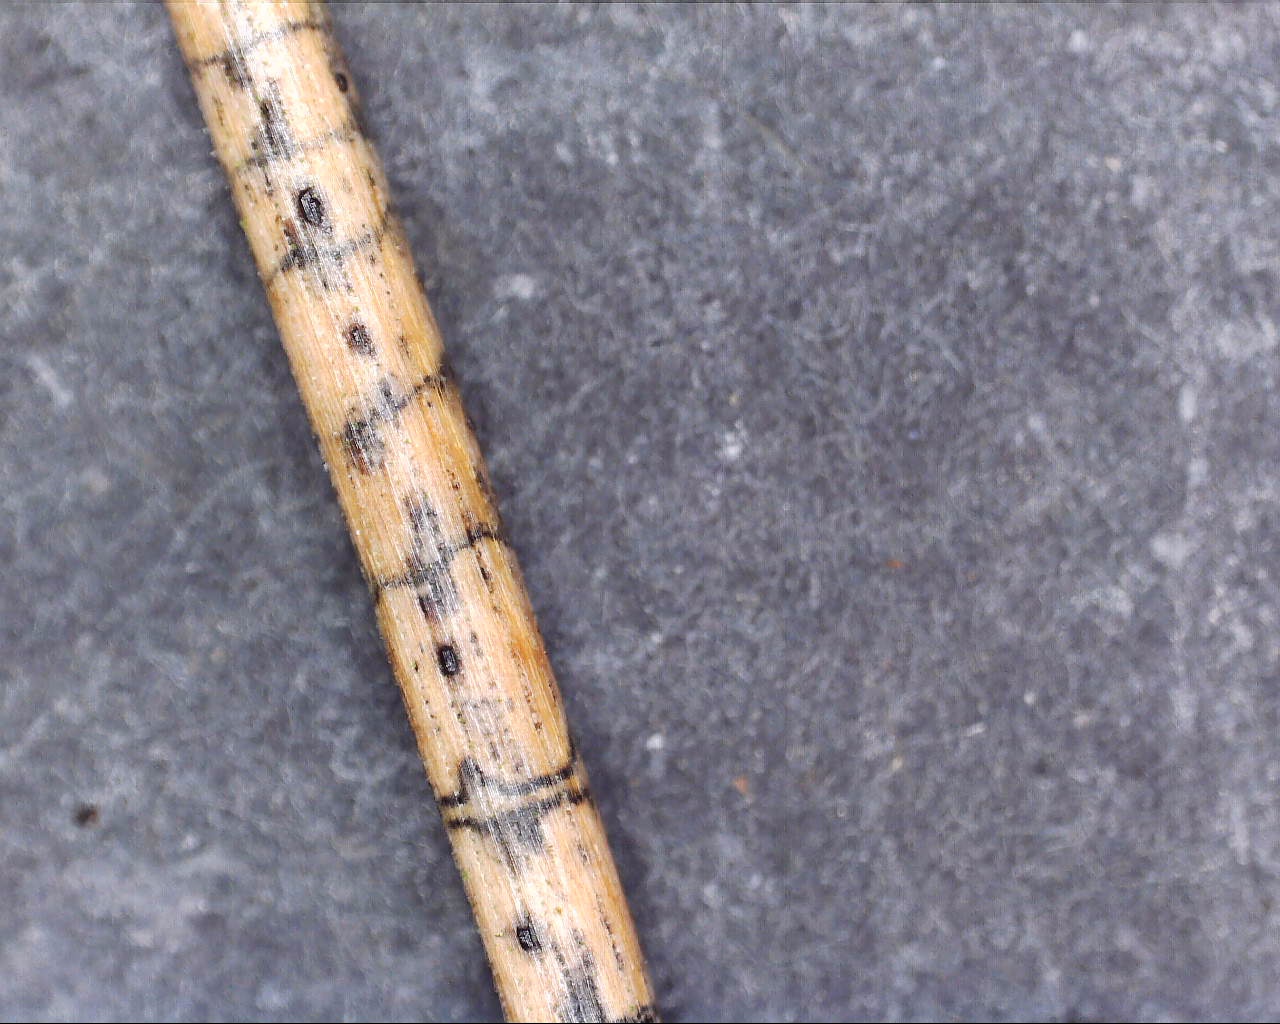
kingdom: Fungi
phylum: Ascomycota
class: Leotiomycetes
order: Rhytismatales
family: Rhytismataceae
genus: Lophodermium
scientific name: Lophodermium pinastri
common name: fyrre-fureplet
